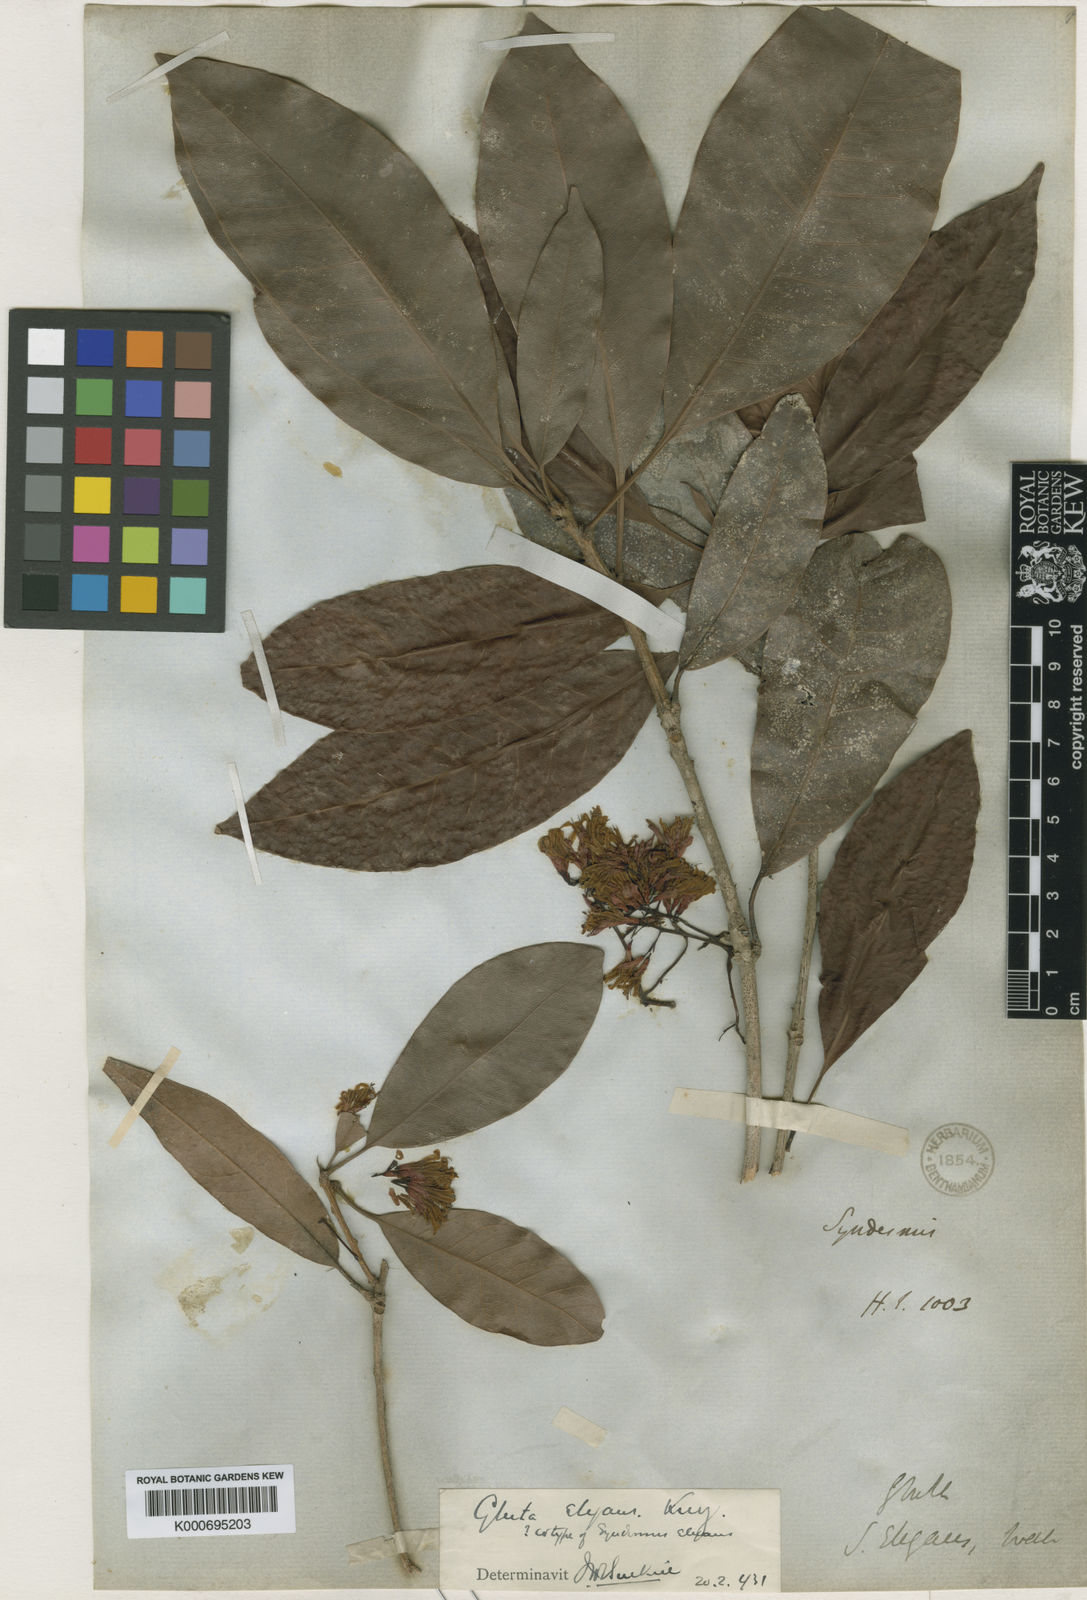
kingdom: Plantae
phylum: Tracheophyta
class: Magnoliopsida
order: Sapindales
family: Anacardiaceae
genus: Gluta
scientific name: Gluta elegans
